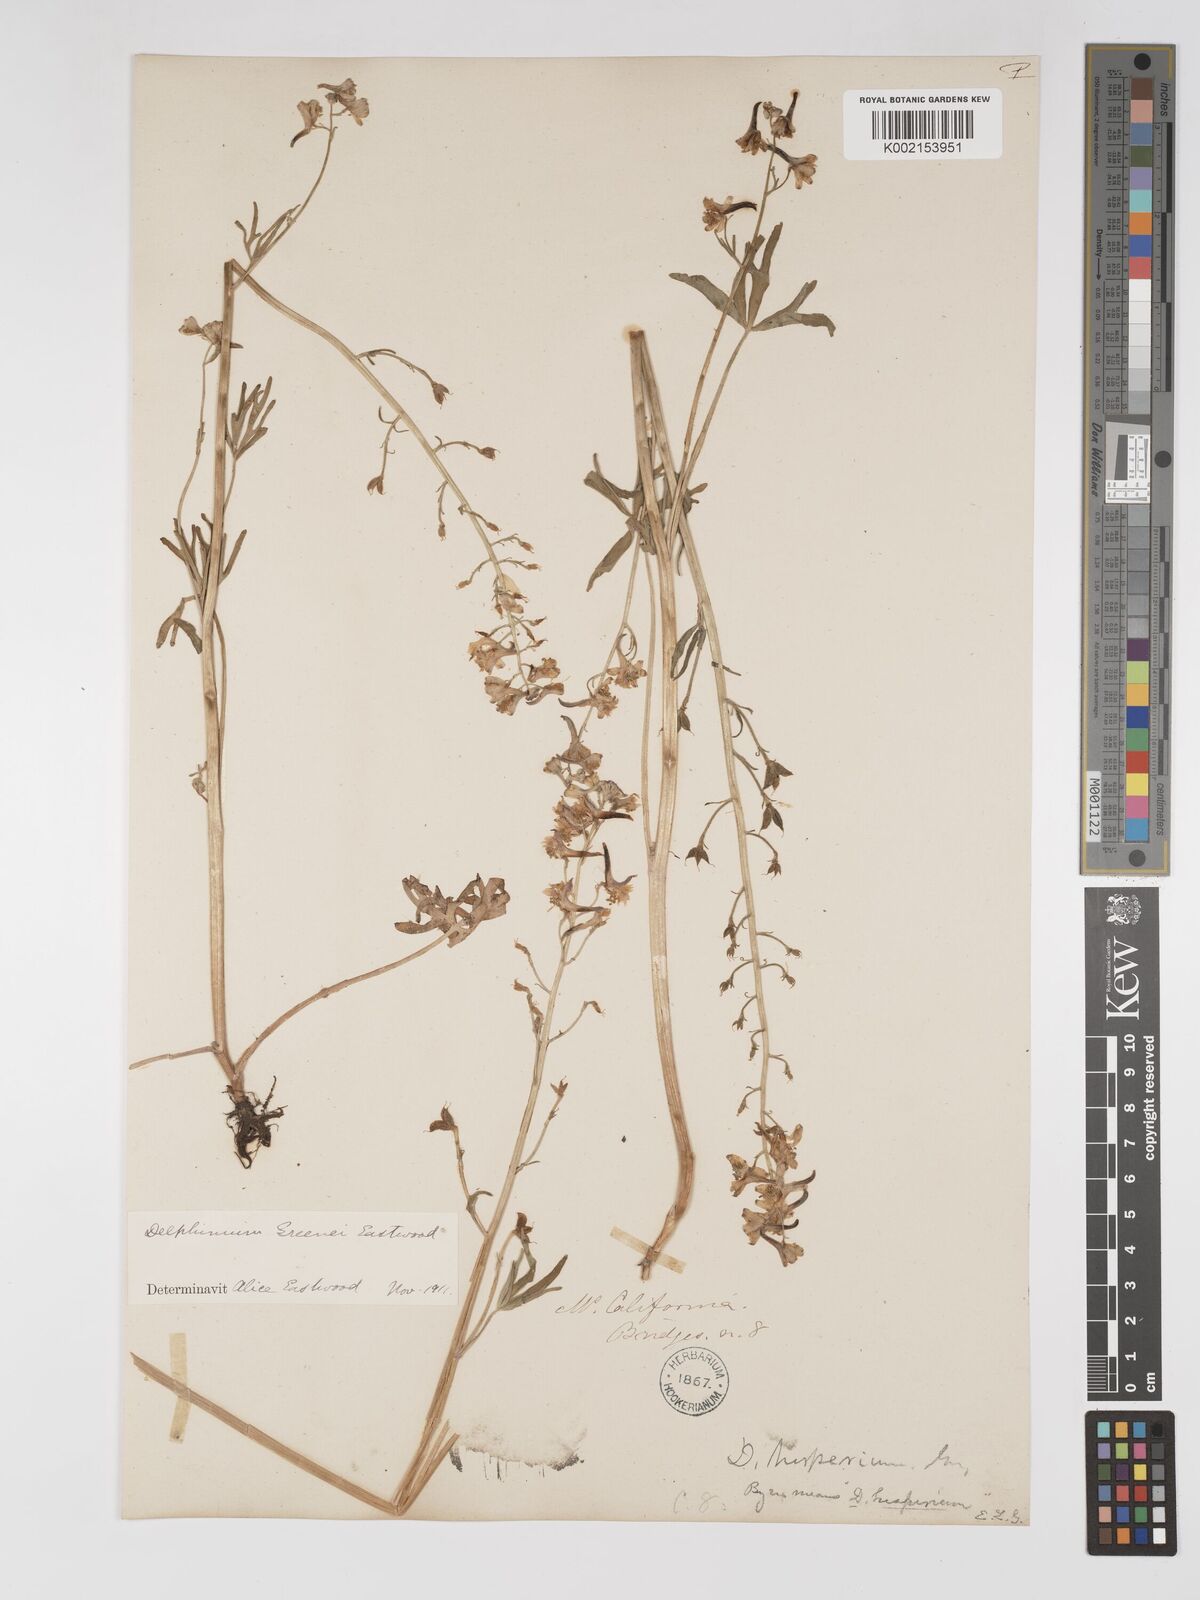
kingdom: Plantae
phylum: Tracheophyta
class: Magnoliopsida
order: Ranunculales
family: Ranunculaceae
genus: Delphinium
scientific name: Delphinium gracilentum
